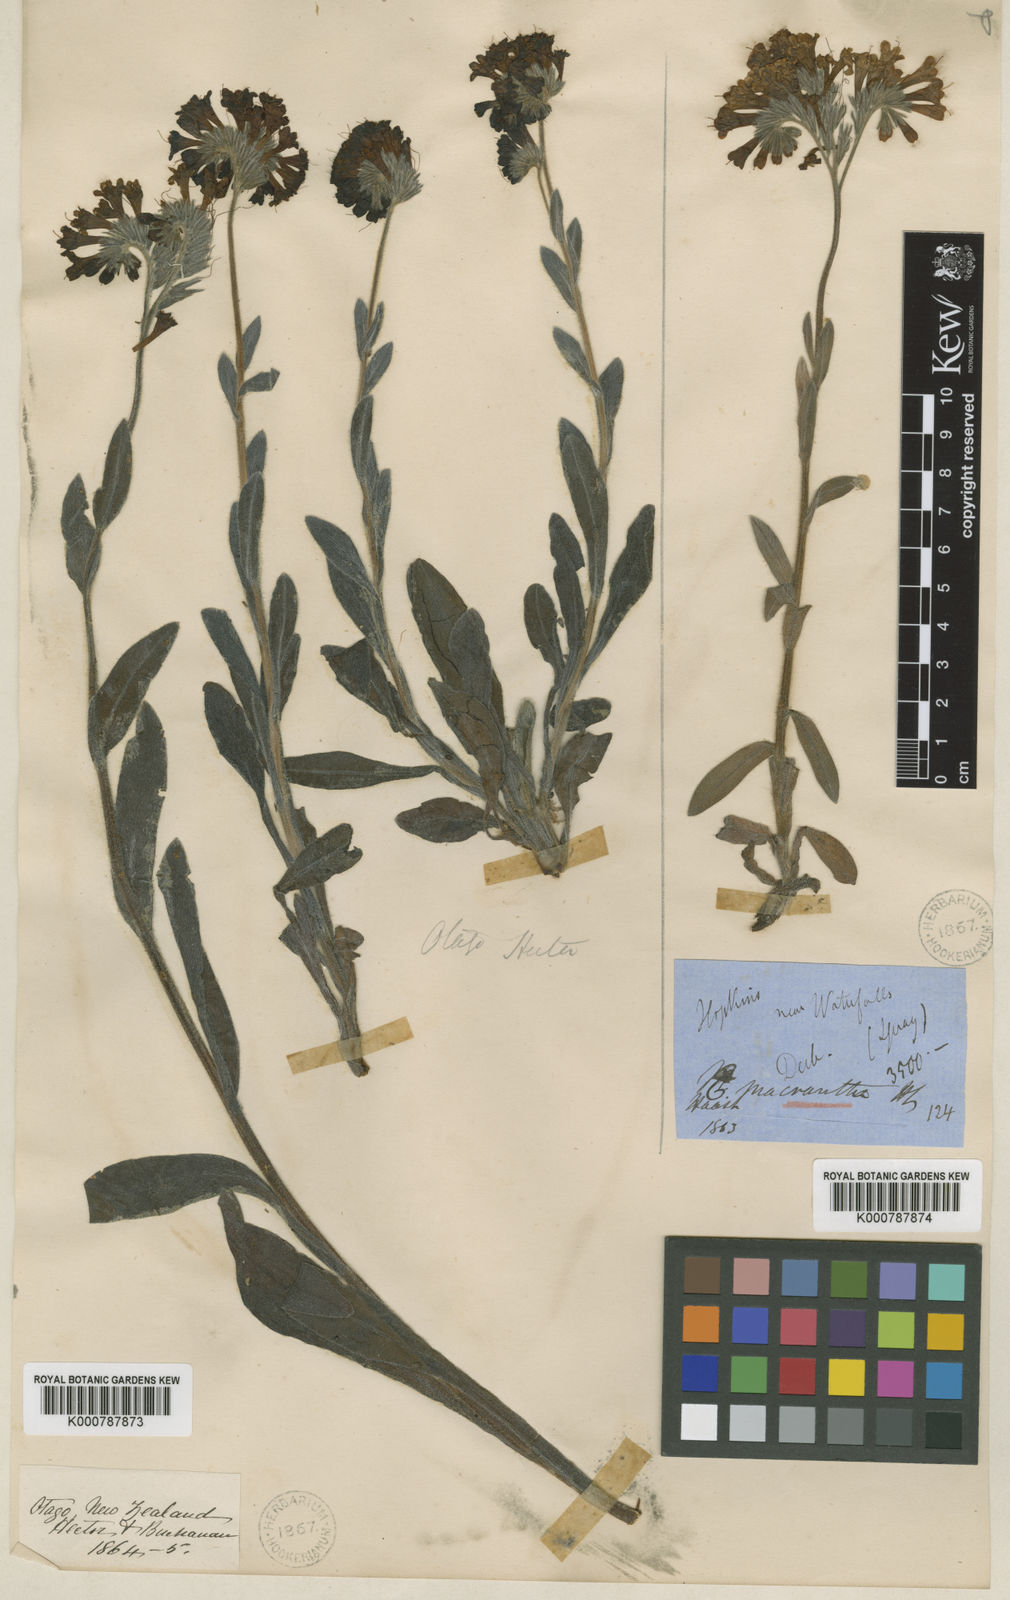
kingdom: Plantae
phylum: Tracheophyta
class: Magnoliopsida
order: Boraginales
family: Boraginaceae
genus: Myosotis
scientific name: Myosotis macrantha
